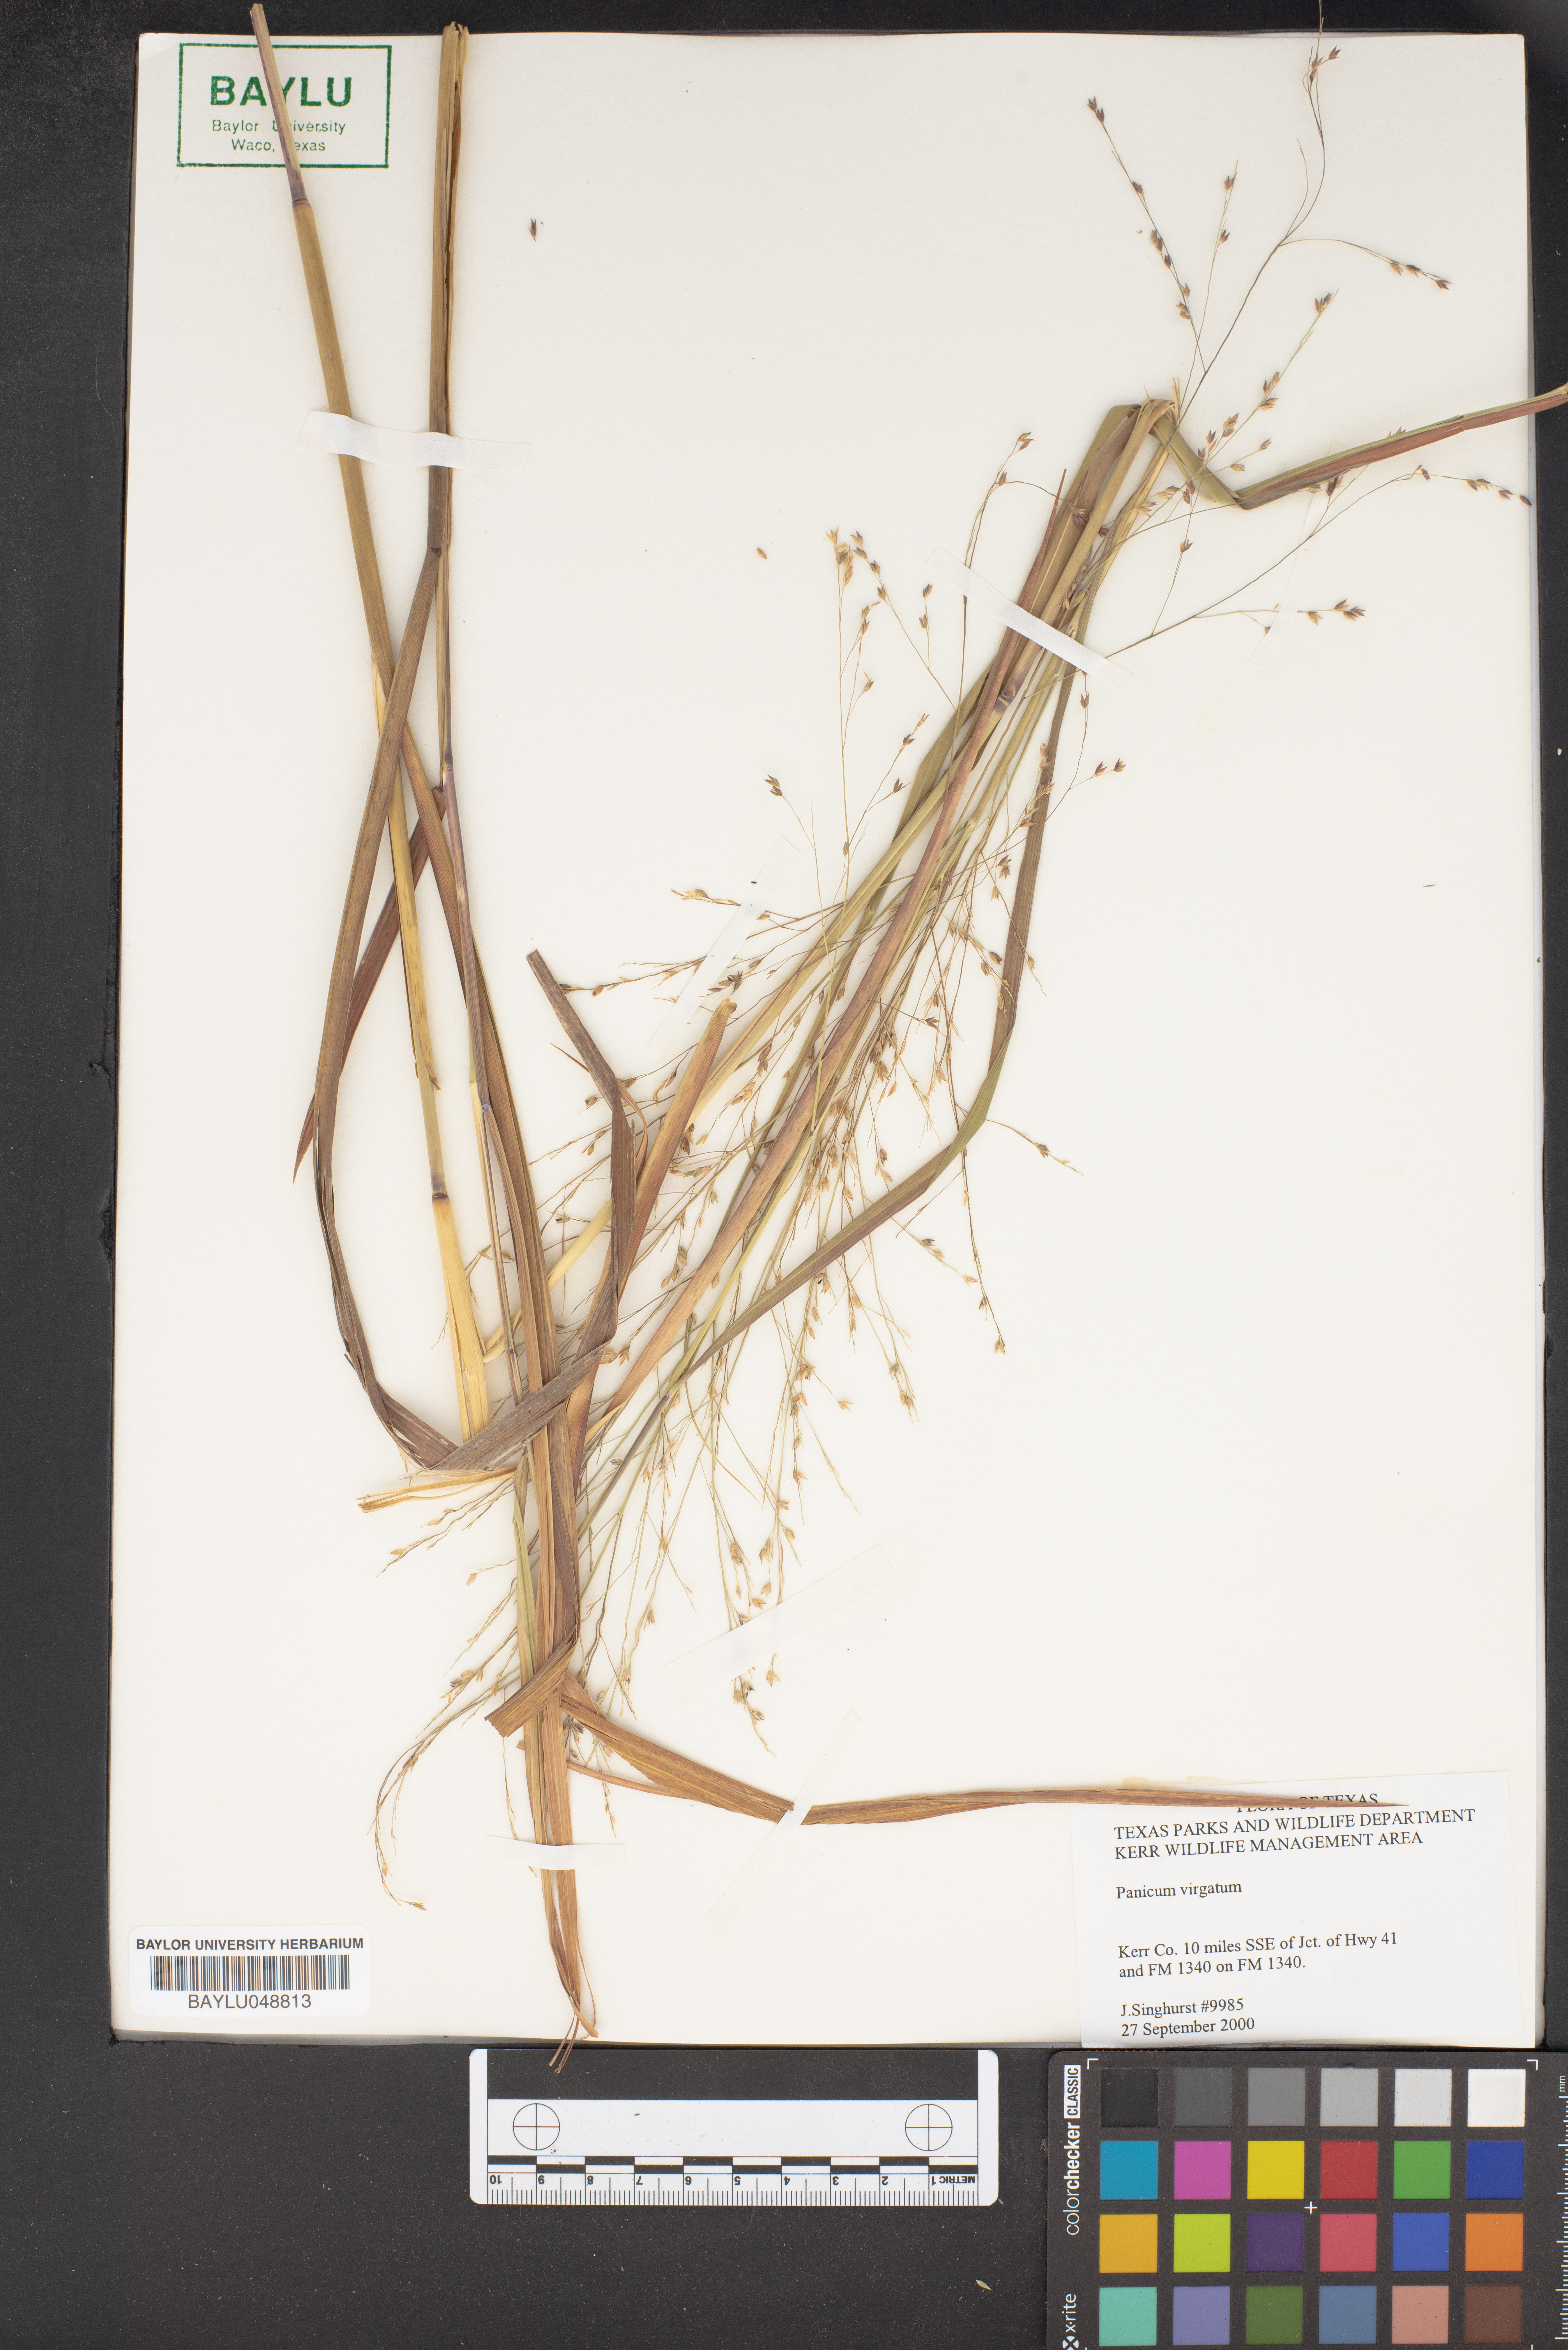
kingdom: Plantae
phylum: Tracheophyta
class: Liliopsida
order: Poales
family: Poaceae
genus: Panicum
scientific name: Panicum virgatum
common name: Switchgrass
